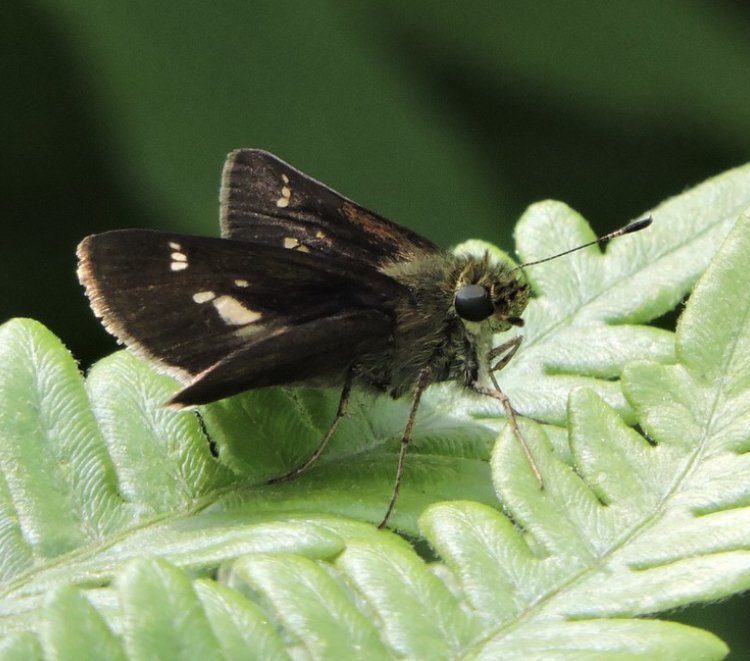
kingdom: Animalia
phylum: Arthropoda
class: Insecta
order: Lepidoptera
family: Hesperiidae
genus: Vernia
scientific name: Vernia verna
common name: Little Glassywing
